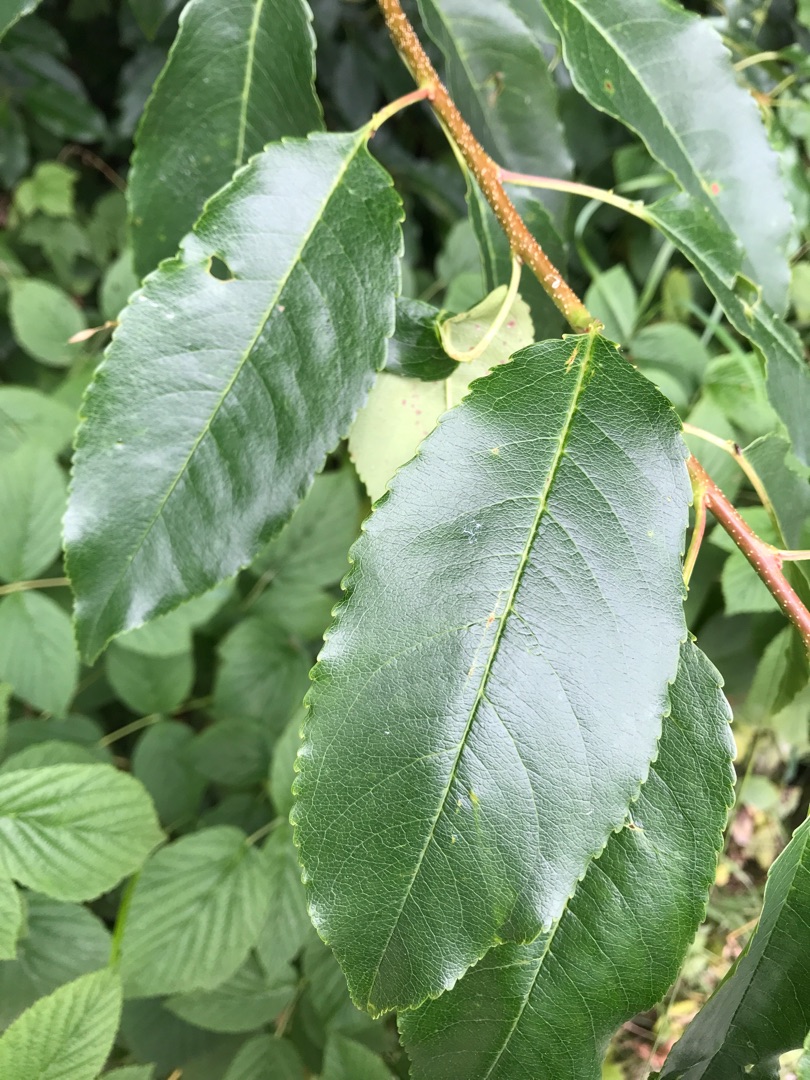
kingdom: Plantae
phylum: Tracheophyta
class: Magnoliopsida
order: Rosales
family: Rosaceae
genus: Prunus
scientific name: Prunus serotina
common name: Glansbladet hæg
